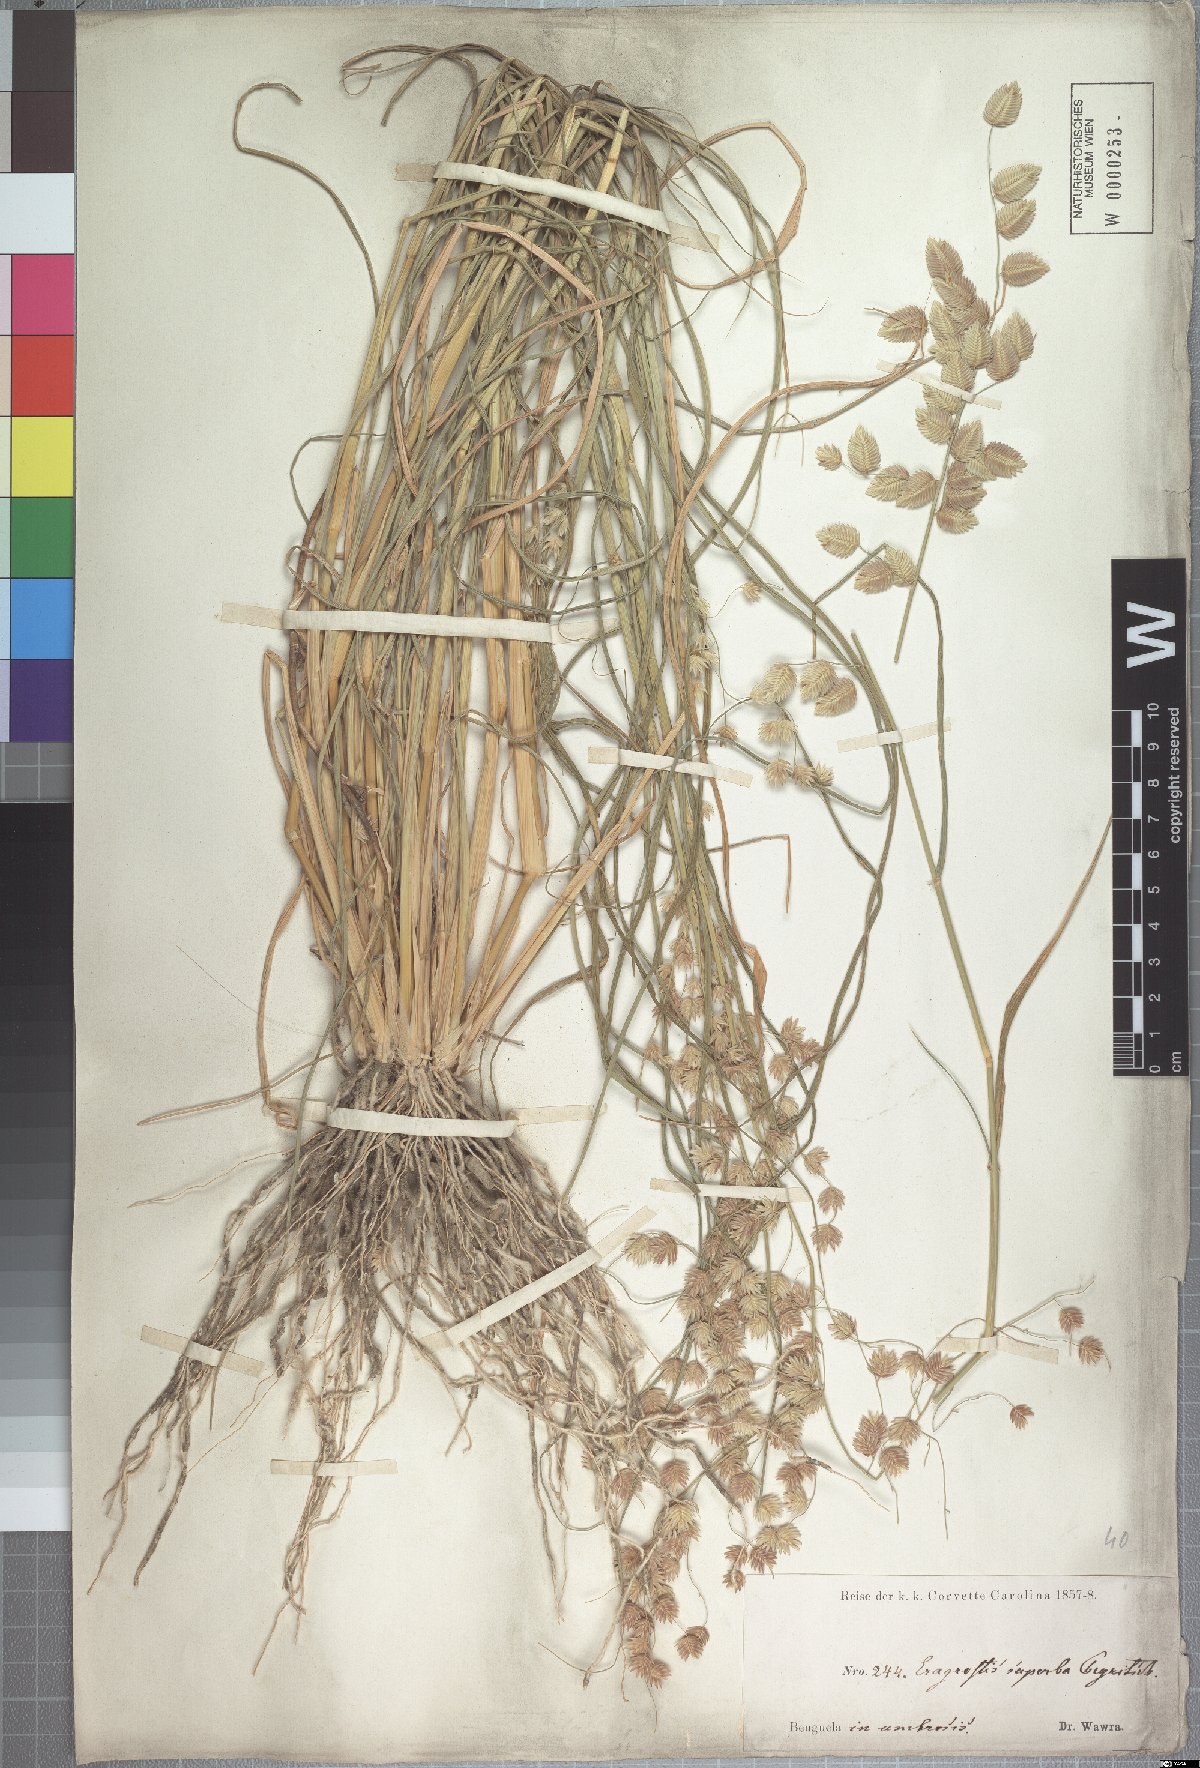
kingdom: Plantae
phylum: Tracheophyta
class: Liliopsida
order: Poales
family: Poaceae
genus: Eragrostis
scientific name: Eragrostis superba
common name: Wilman lovegrass
